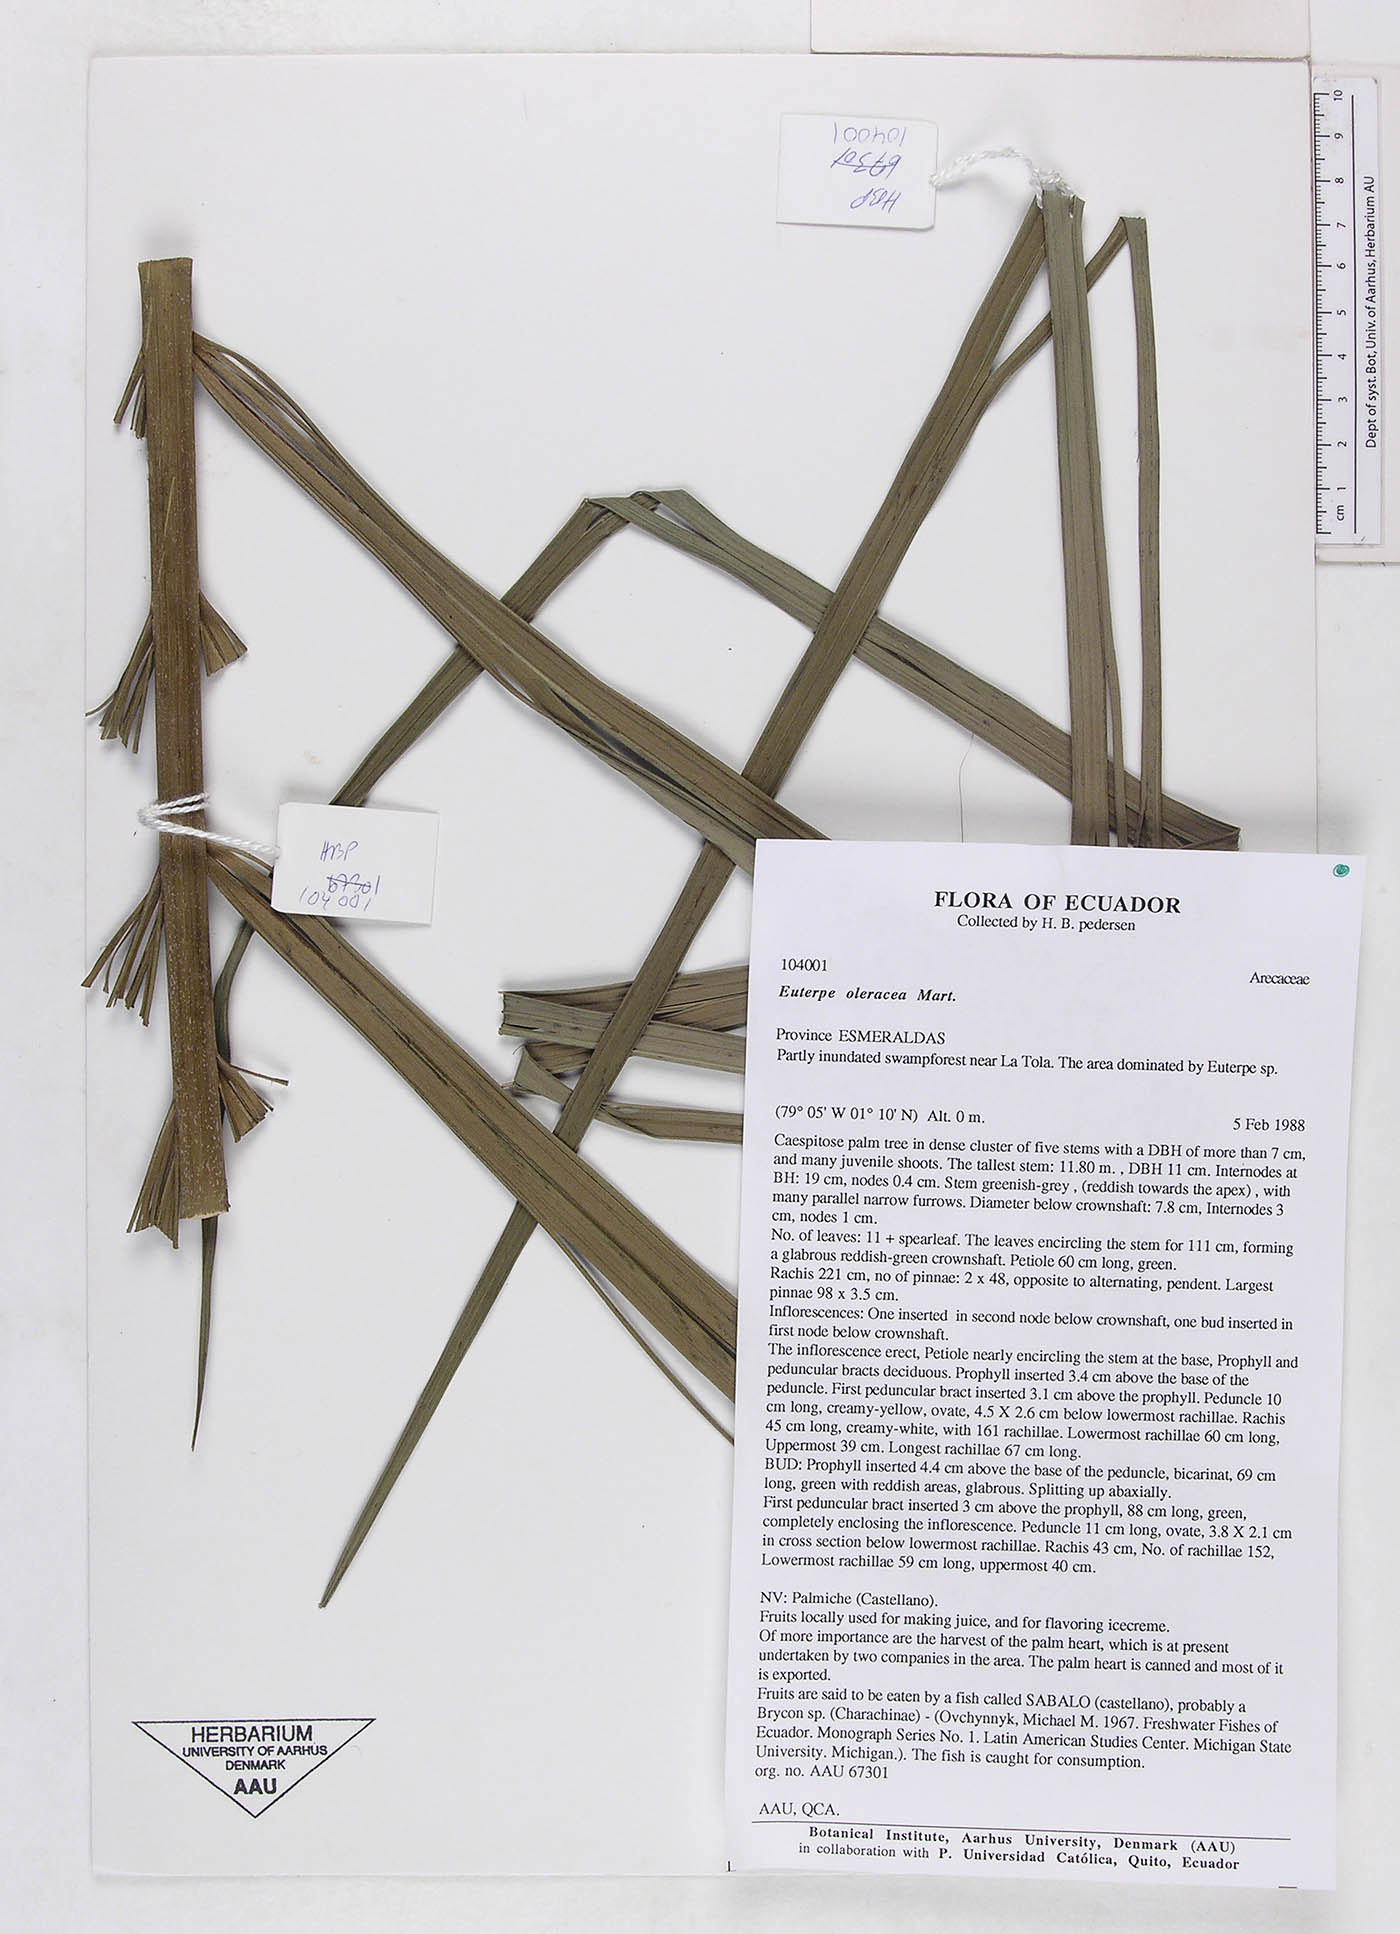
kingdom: Plantae
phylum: Tracheophyta
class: Liliopsida
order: Arecales
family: Arecaceae
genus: Euterpe
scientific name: Euterpe oleracea
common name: Assai palm
